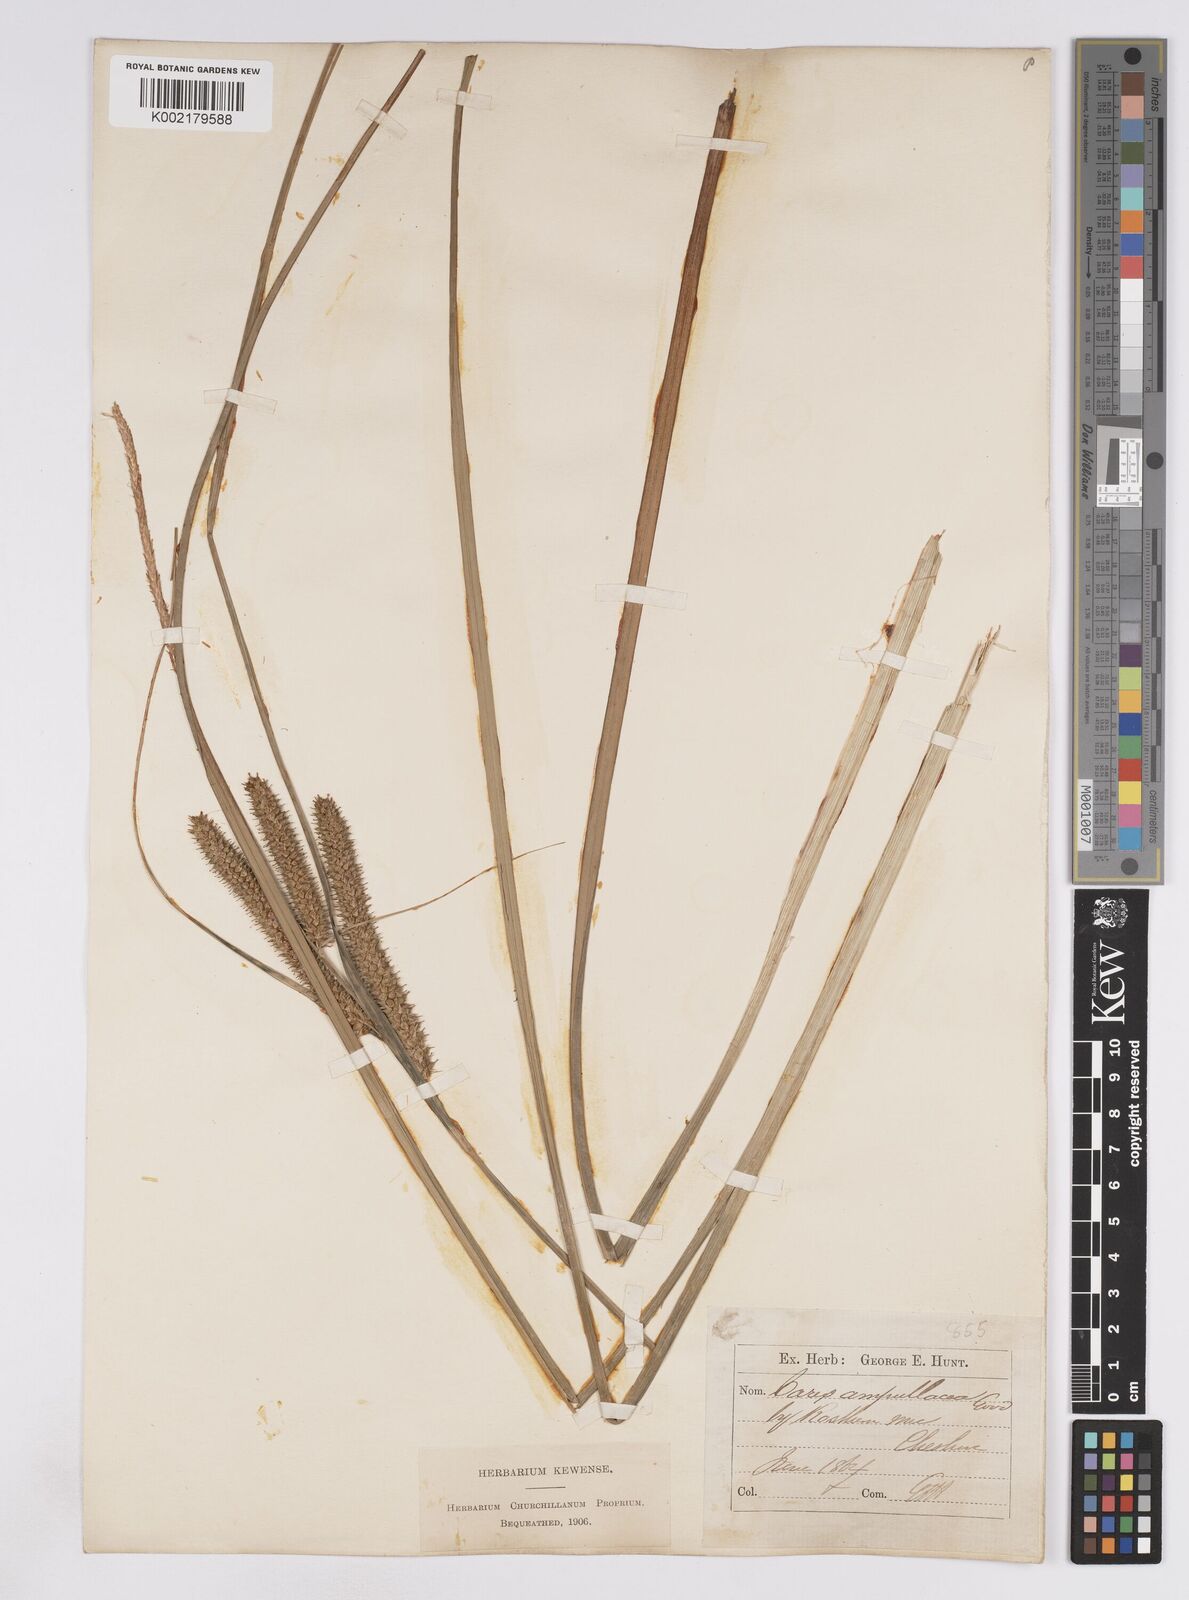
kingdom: Plantae
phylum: Tracheophyta
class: Liliopsida
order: Poales
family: Cyperaceae
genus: Carex
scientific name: Carex rostrata
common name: Bottle sedge
